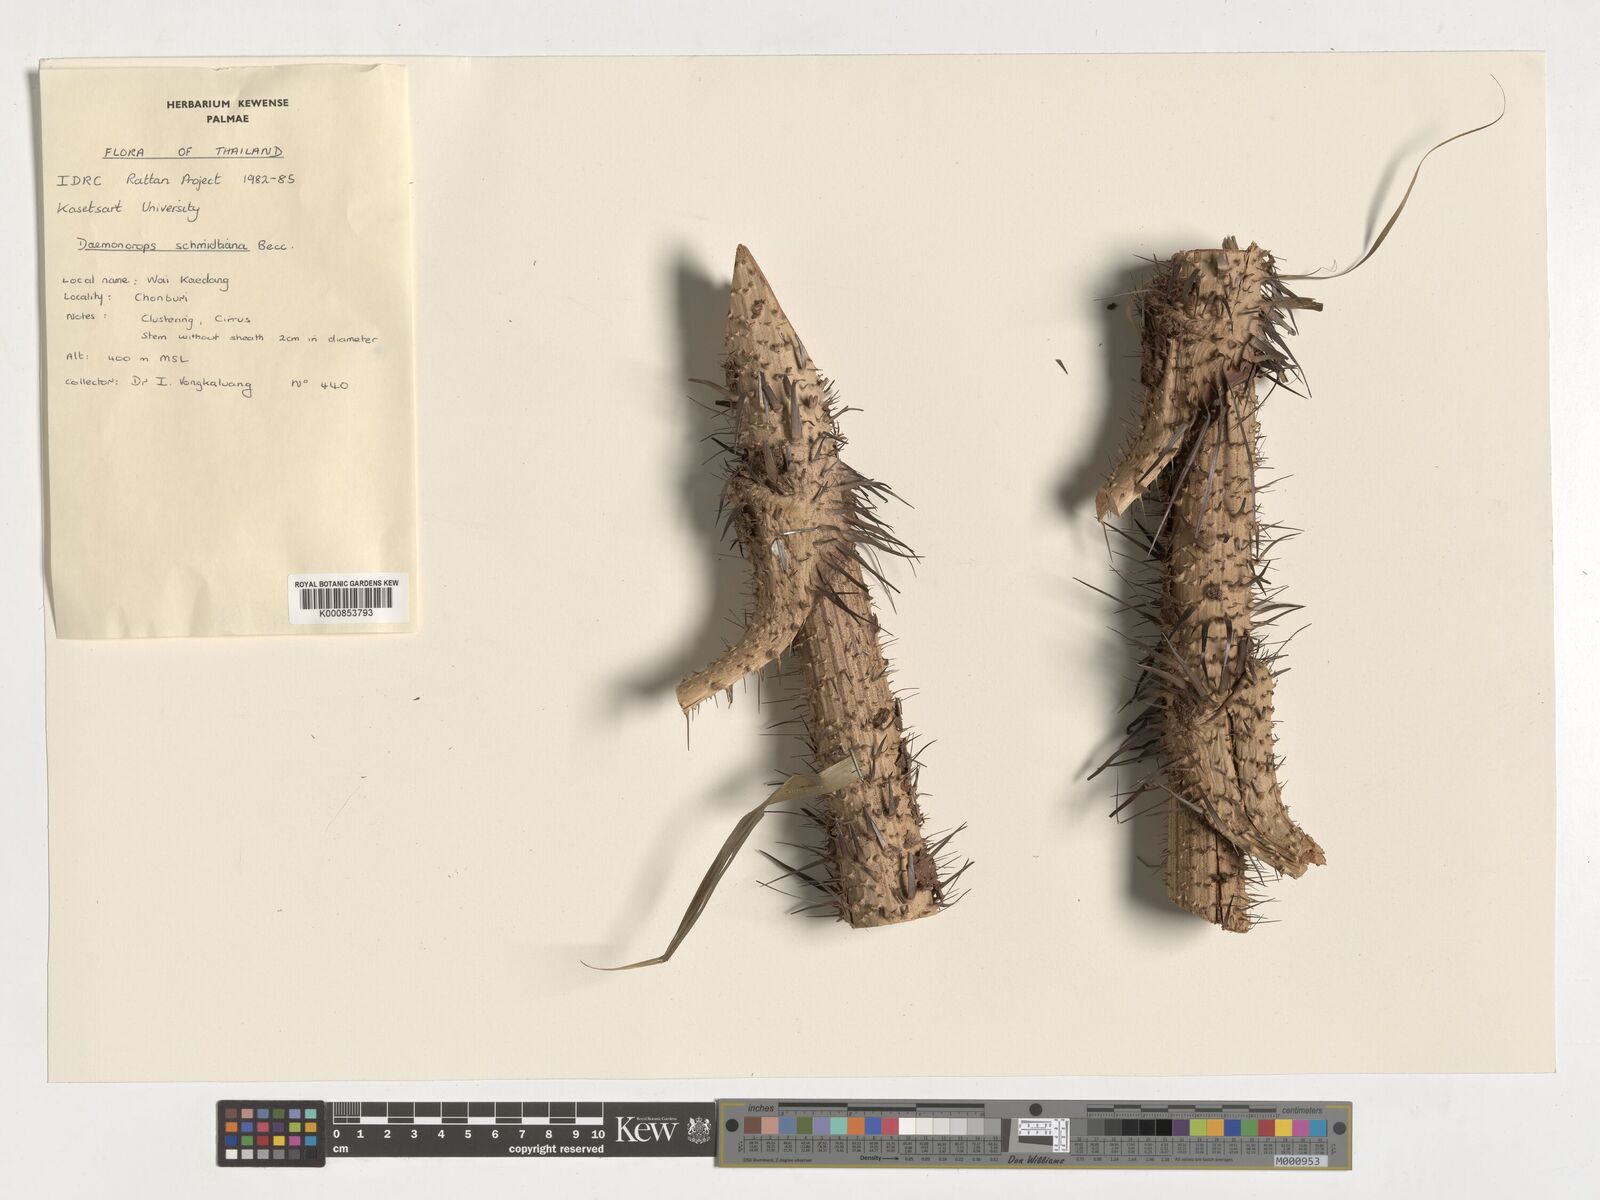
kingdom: Plantae
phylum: Tracheophyta
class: Liliopsida
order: Arecales
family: Arecaceae
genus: Calamus
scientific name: Calamus melanochaetes
